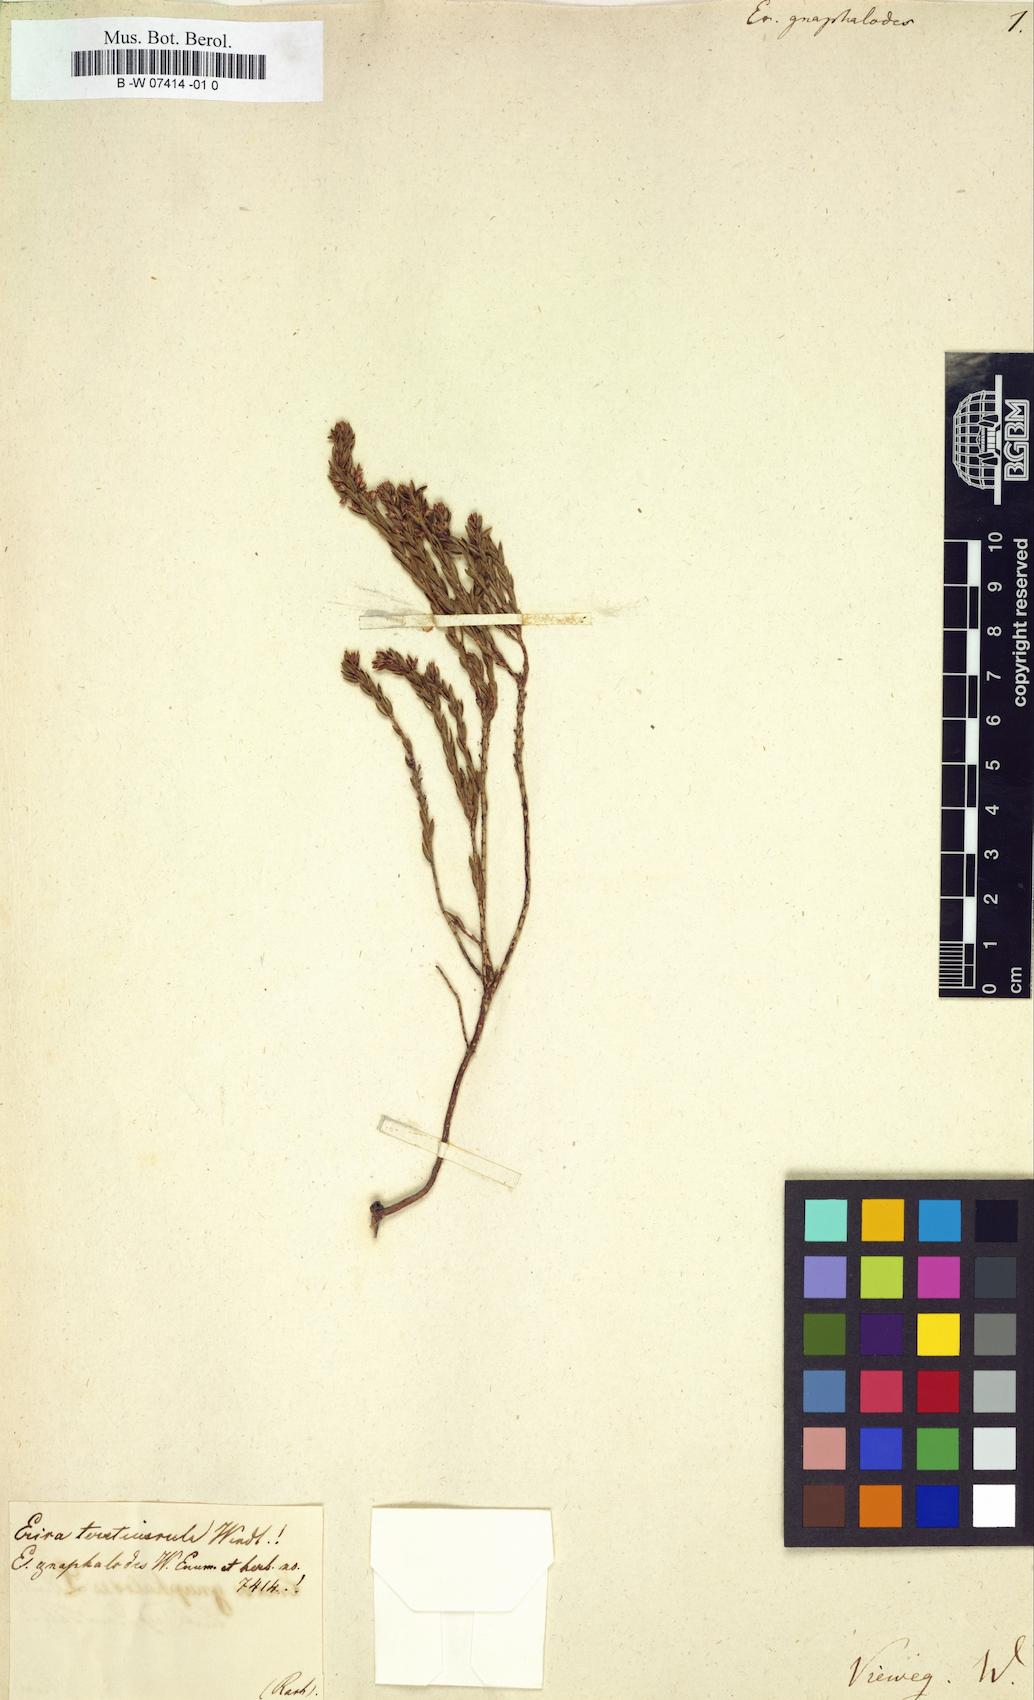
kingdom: Plantae
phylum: Tracheophyta
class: Magnoliopsida
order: Ericales
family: Ericaceae
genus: Erica
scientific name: Erica calycina
